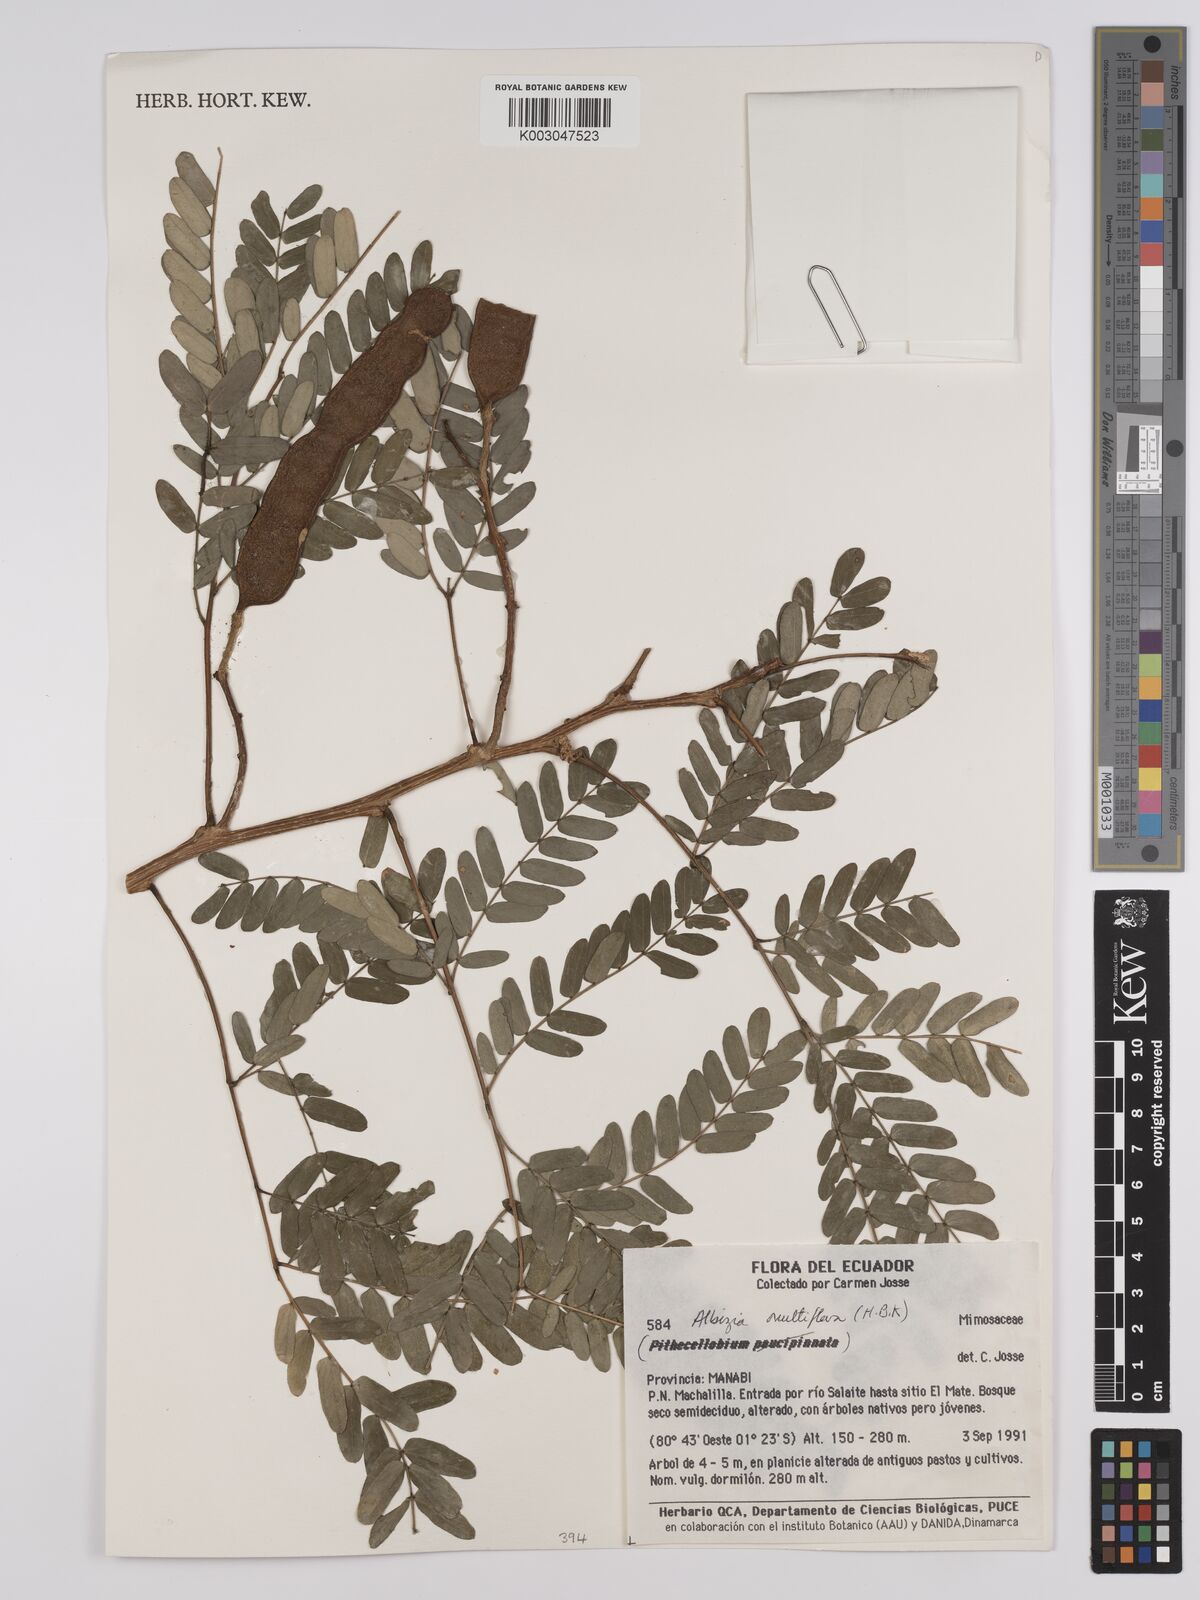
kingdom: Plantae
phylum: Tracheophyta
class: Magnoliopsida
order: Fabales
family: Fabaceae
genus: Albizia
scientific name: Albizia multiflora
